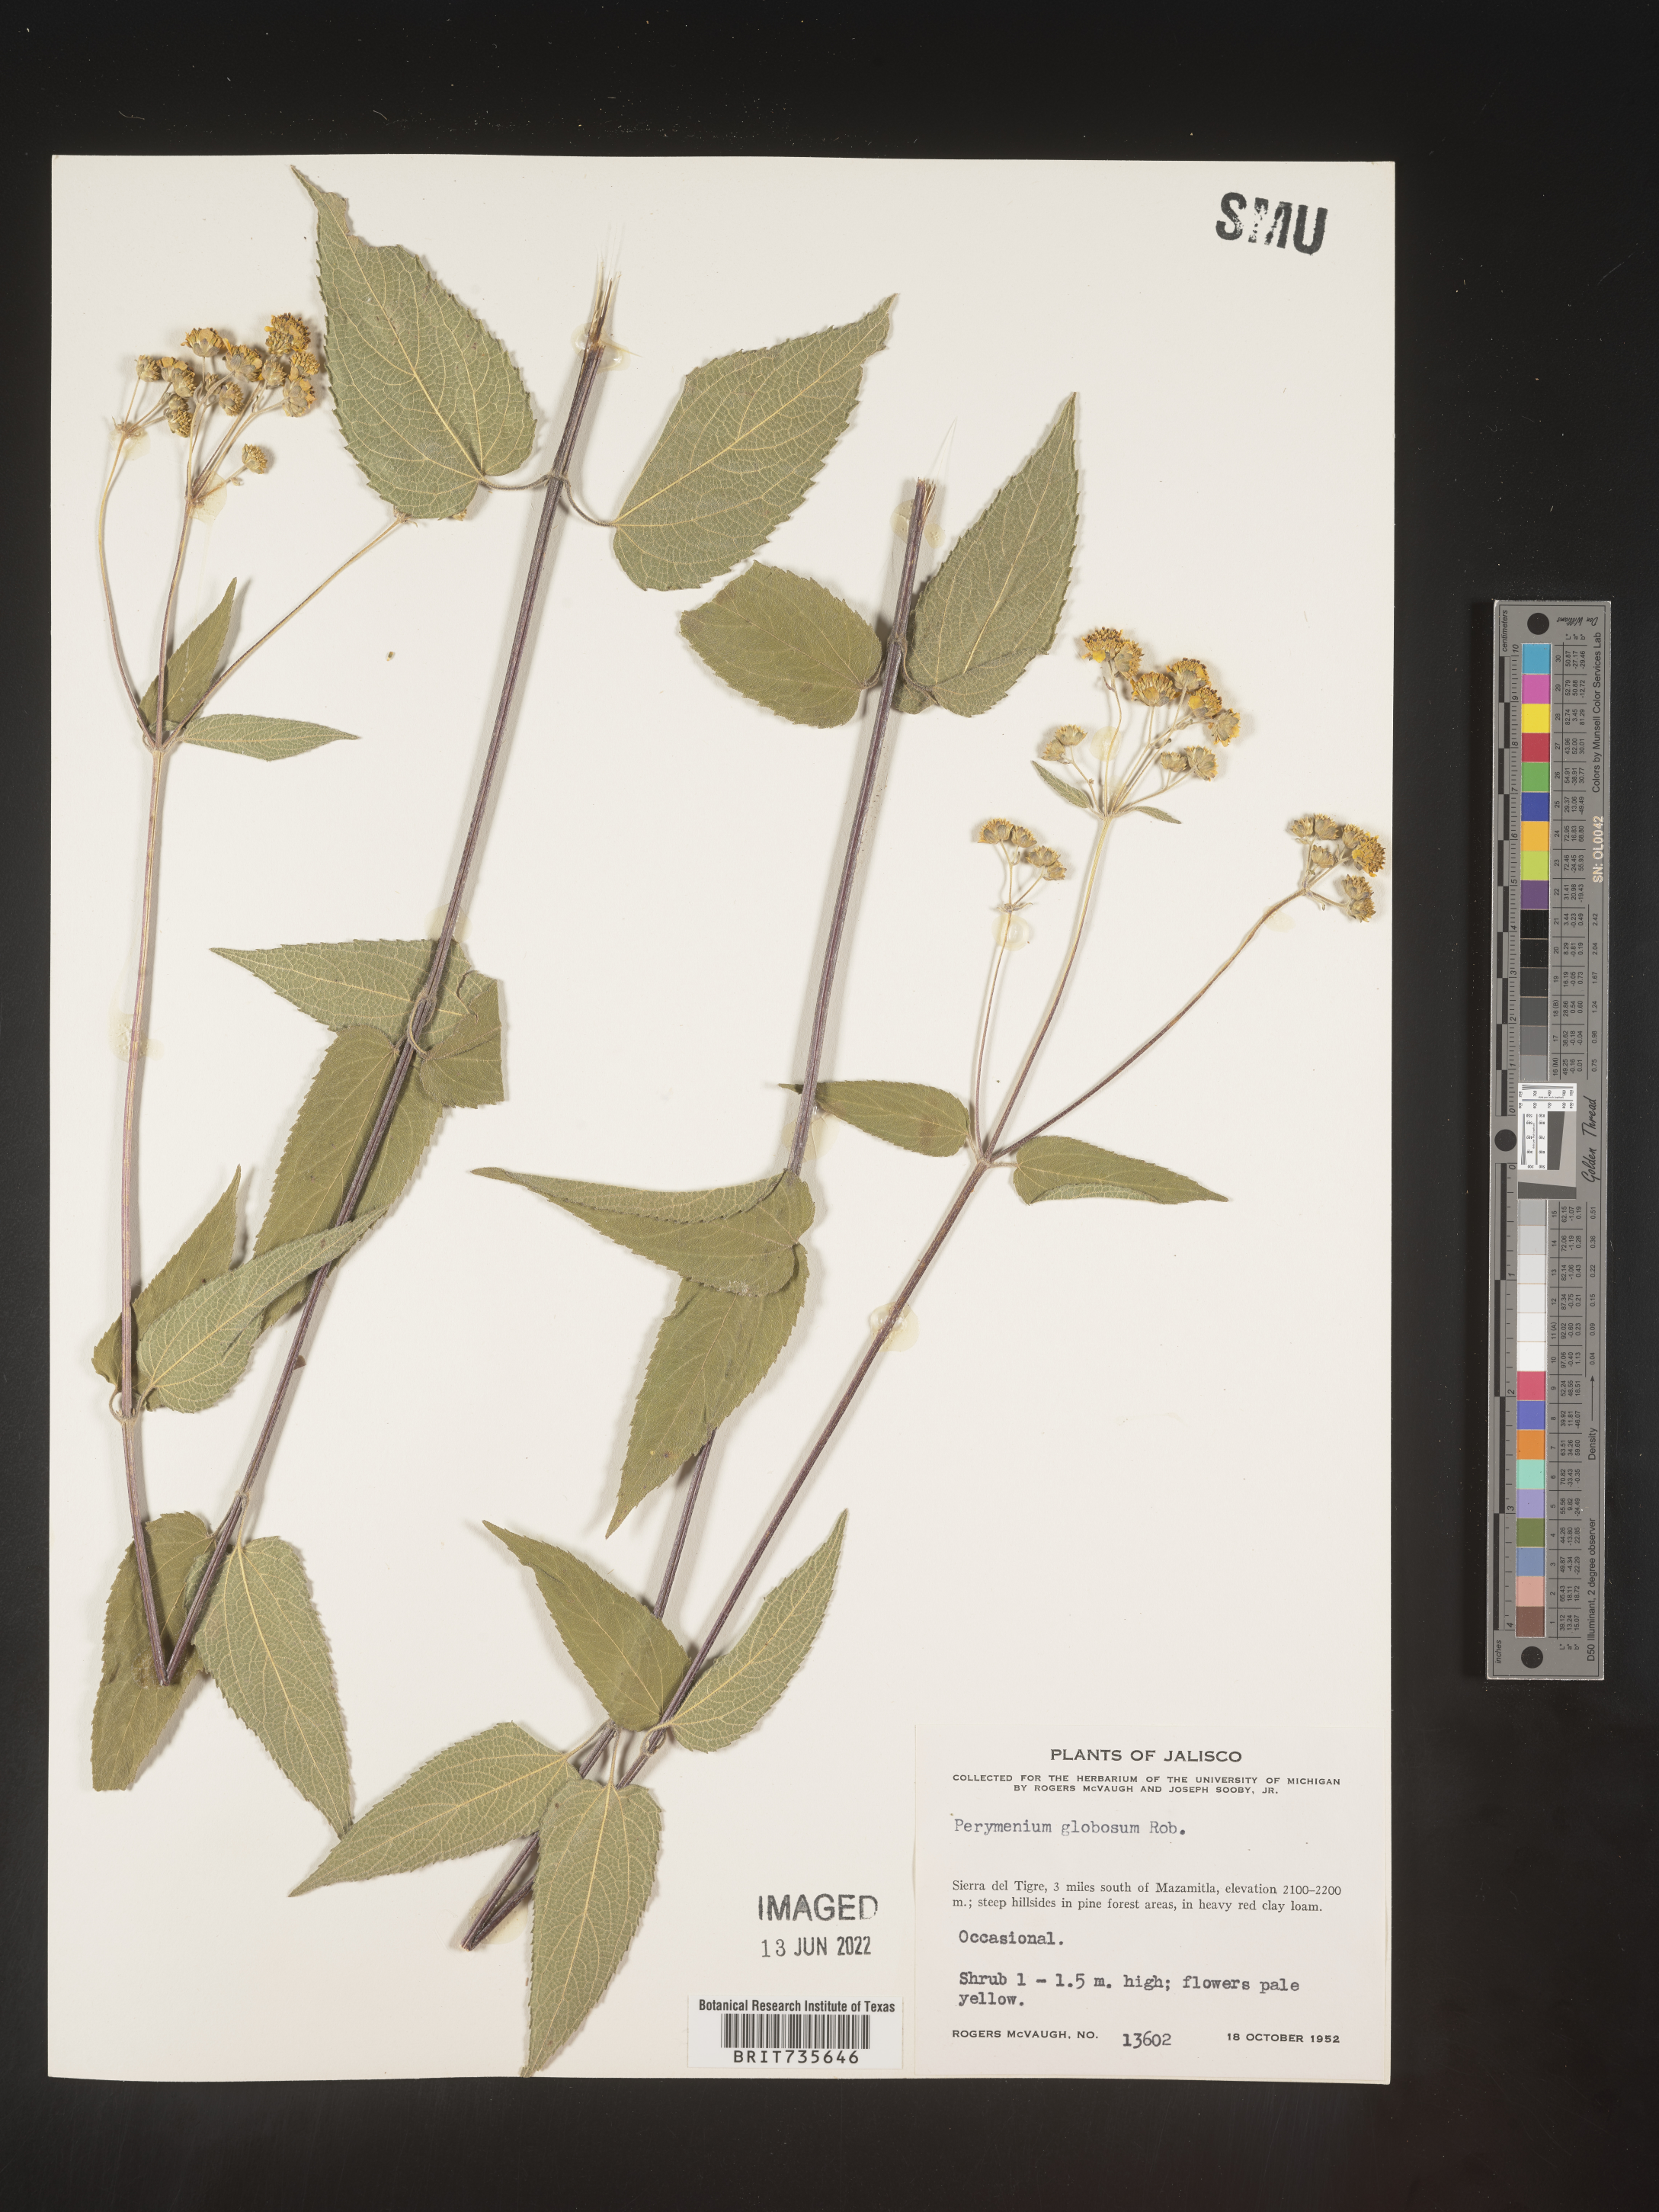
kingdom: Plantae
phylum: Tracheophyta
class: Magnoliopsida
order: Asterales
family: Asteraceae
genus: Perymenium
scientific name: Perymenium
